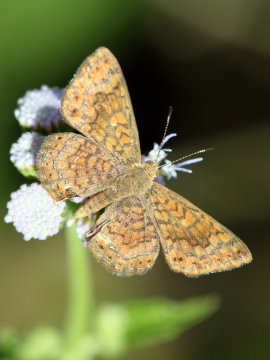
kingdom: Animalia
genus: Calephelis
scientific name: Calephelis nemesis
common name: Fatal Metalmark
